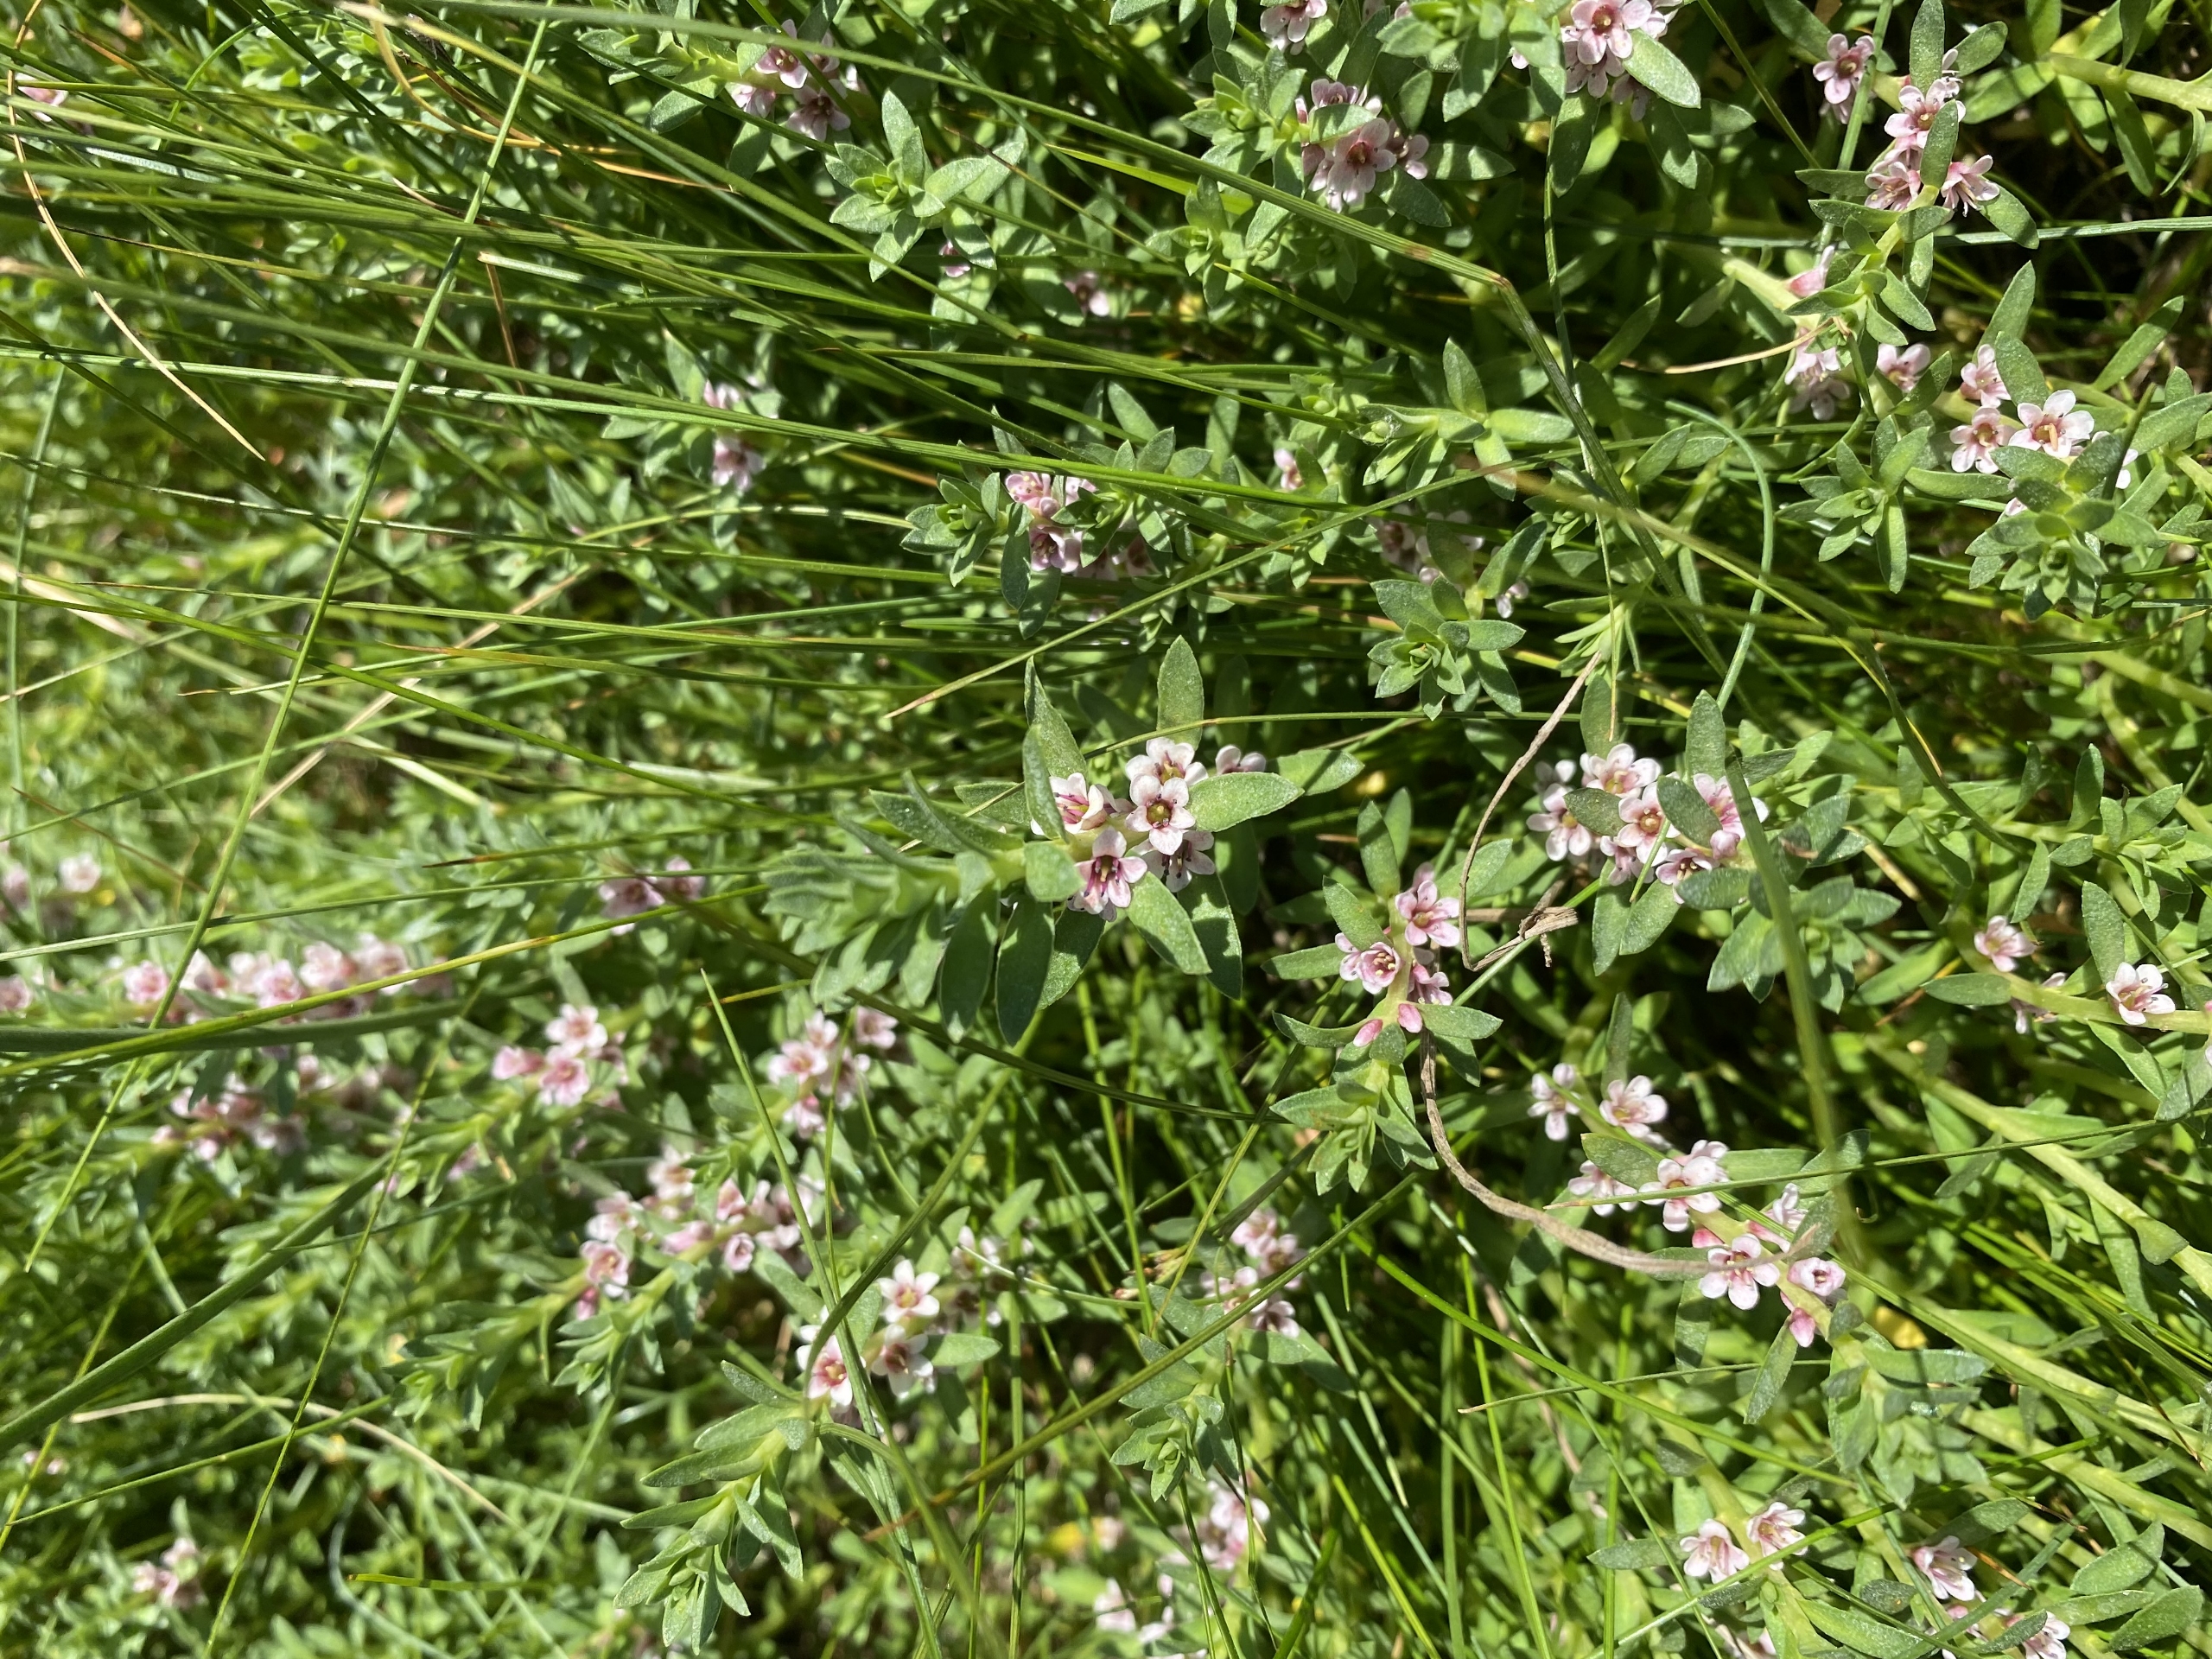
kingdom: Plantae
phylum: Tracheophyta
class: Magnoliopsida
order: Ericales
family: Primulaceae
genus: Lysimachia
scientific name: Lysimachia maritima
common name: Sandkryb
